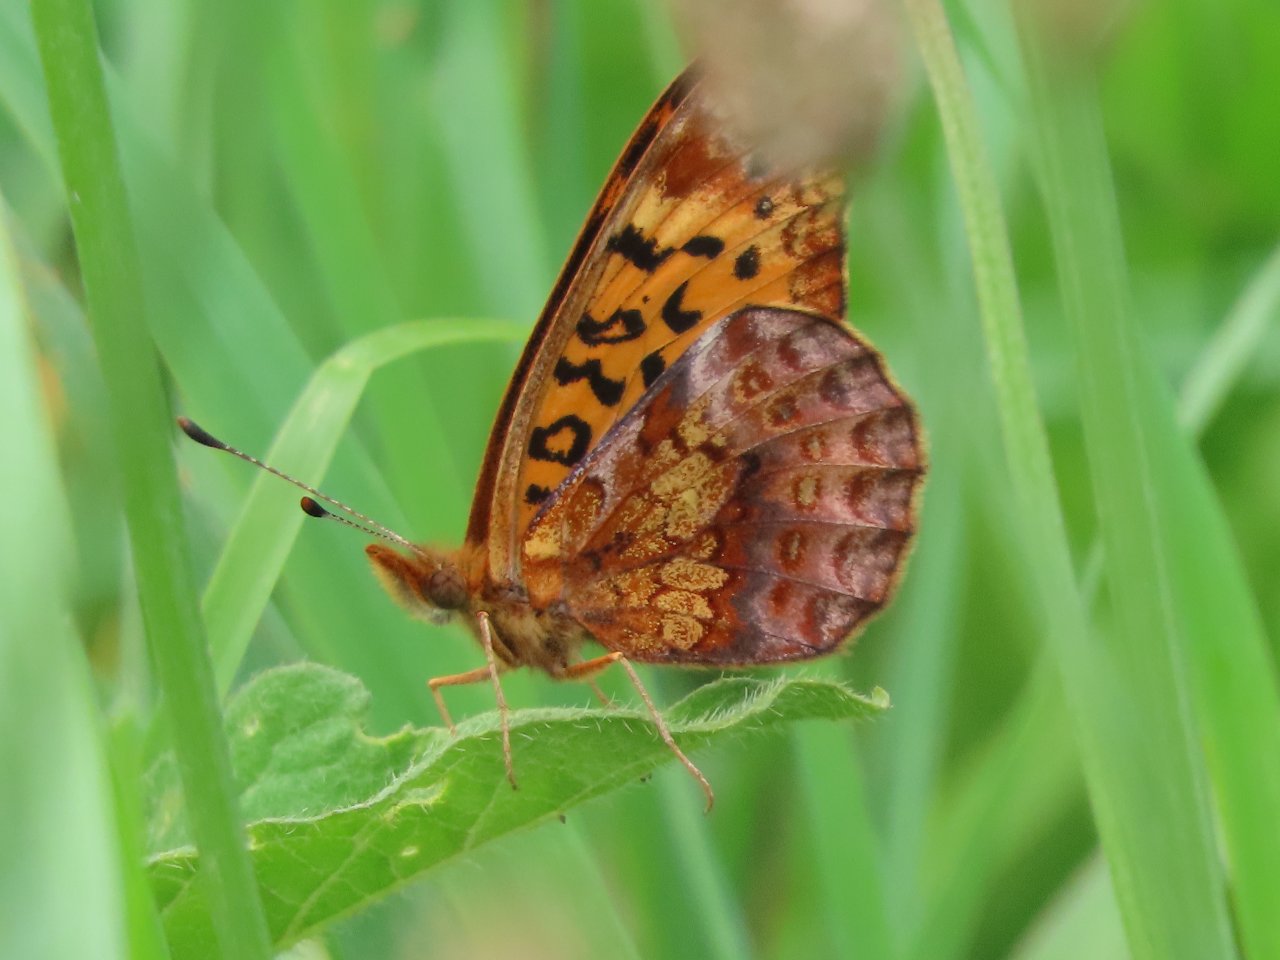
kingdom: Animalia
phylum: Arthropoda
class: Insecta
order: Lepidoptera
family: Nymphalidae
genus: Clossiana
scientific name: Clossiana toddi
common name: Meadow Fritillary
